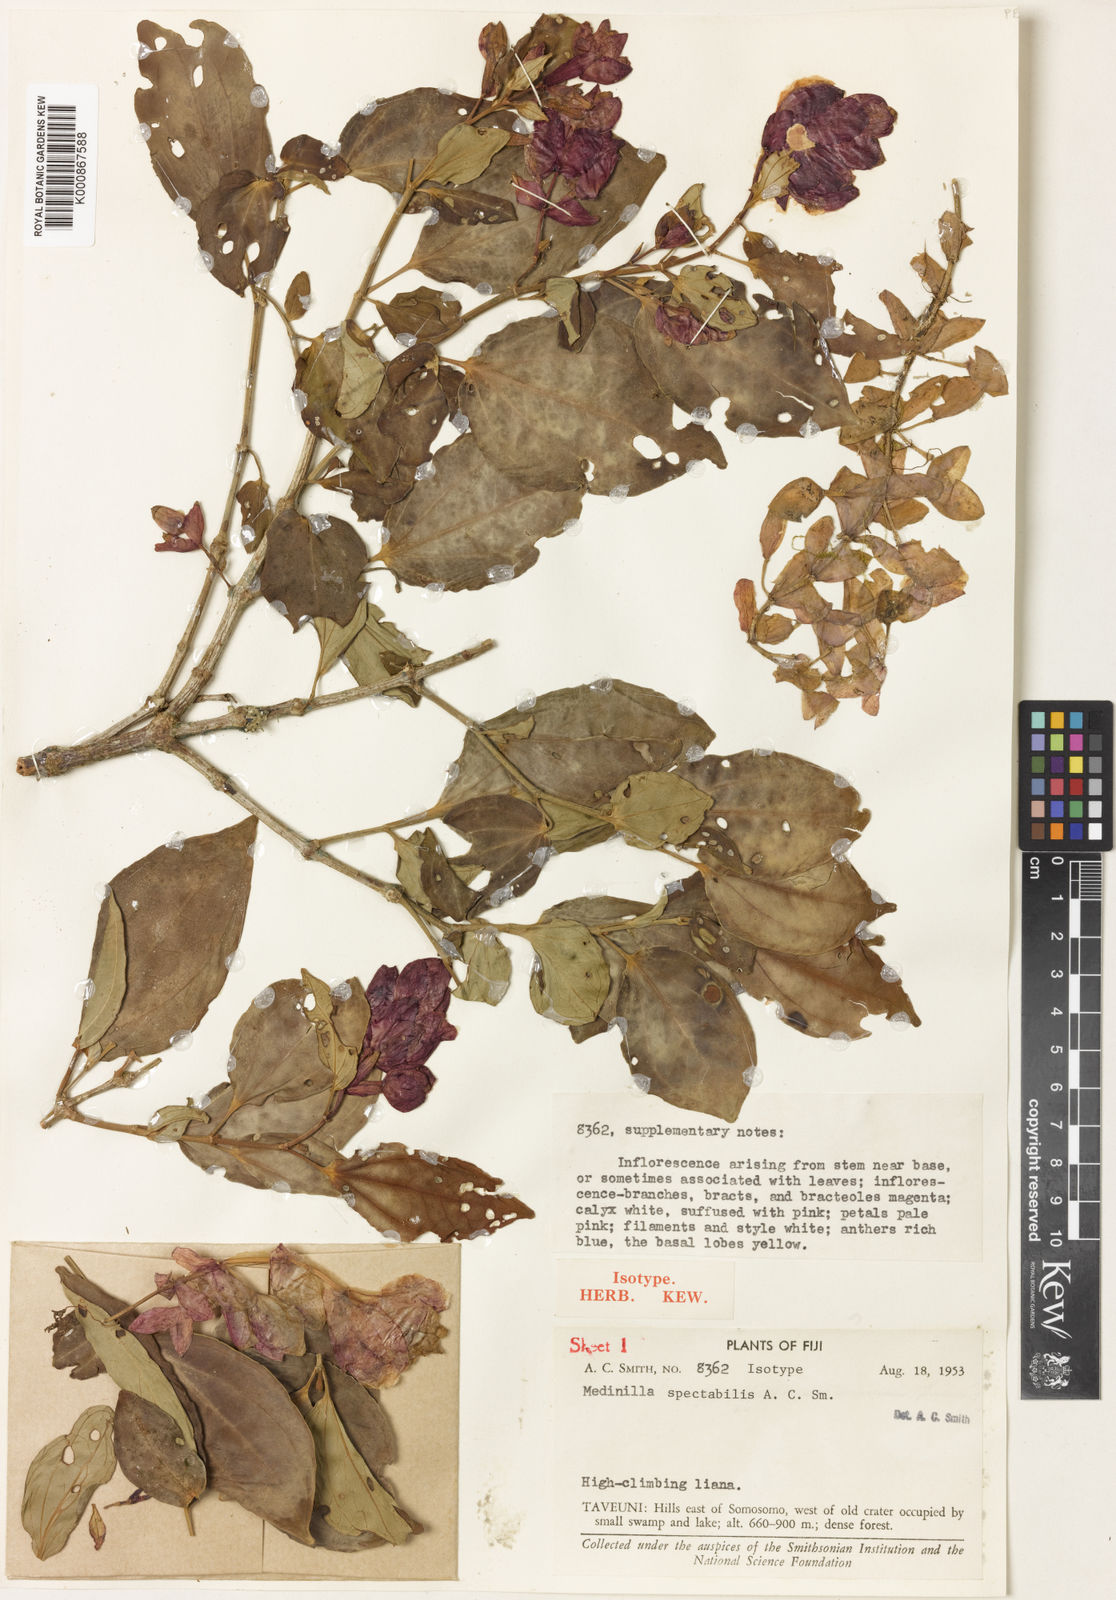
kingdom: Plantae
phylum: Tracheophyta
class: Magnoliopsida
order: Myrtales
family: Melastomataceae
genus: Medinilla
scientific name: Medinilla spectabilis
